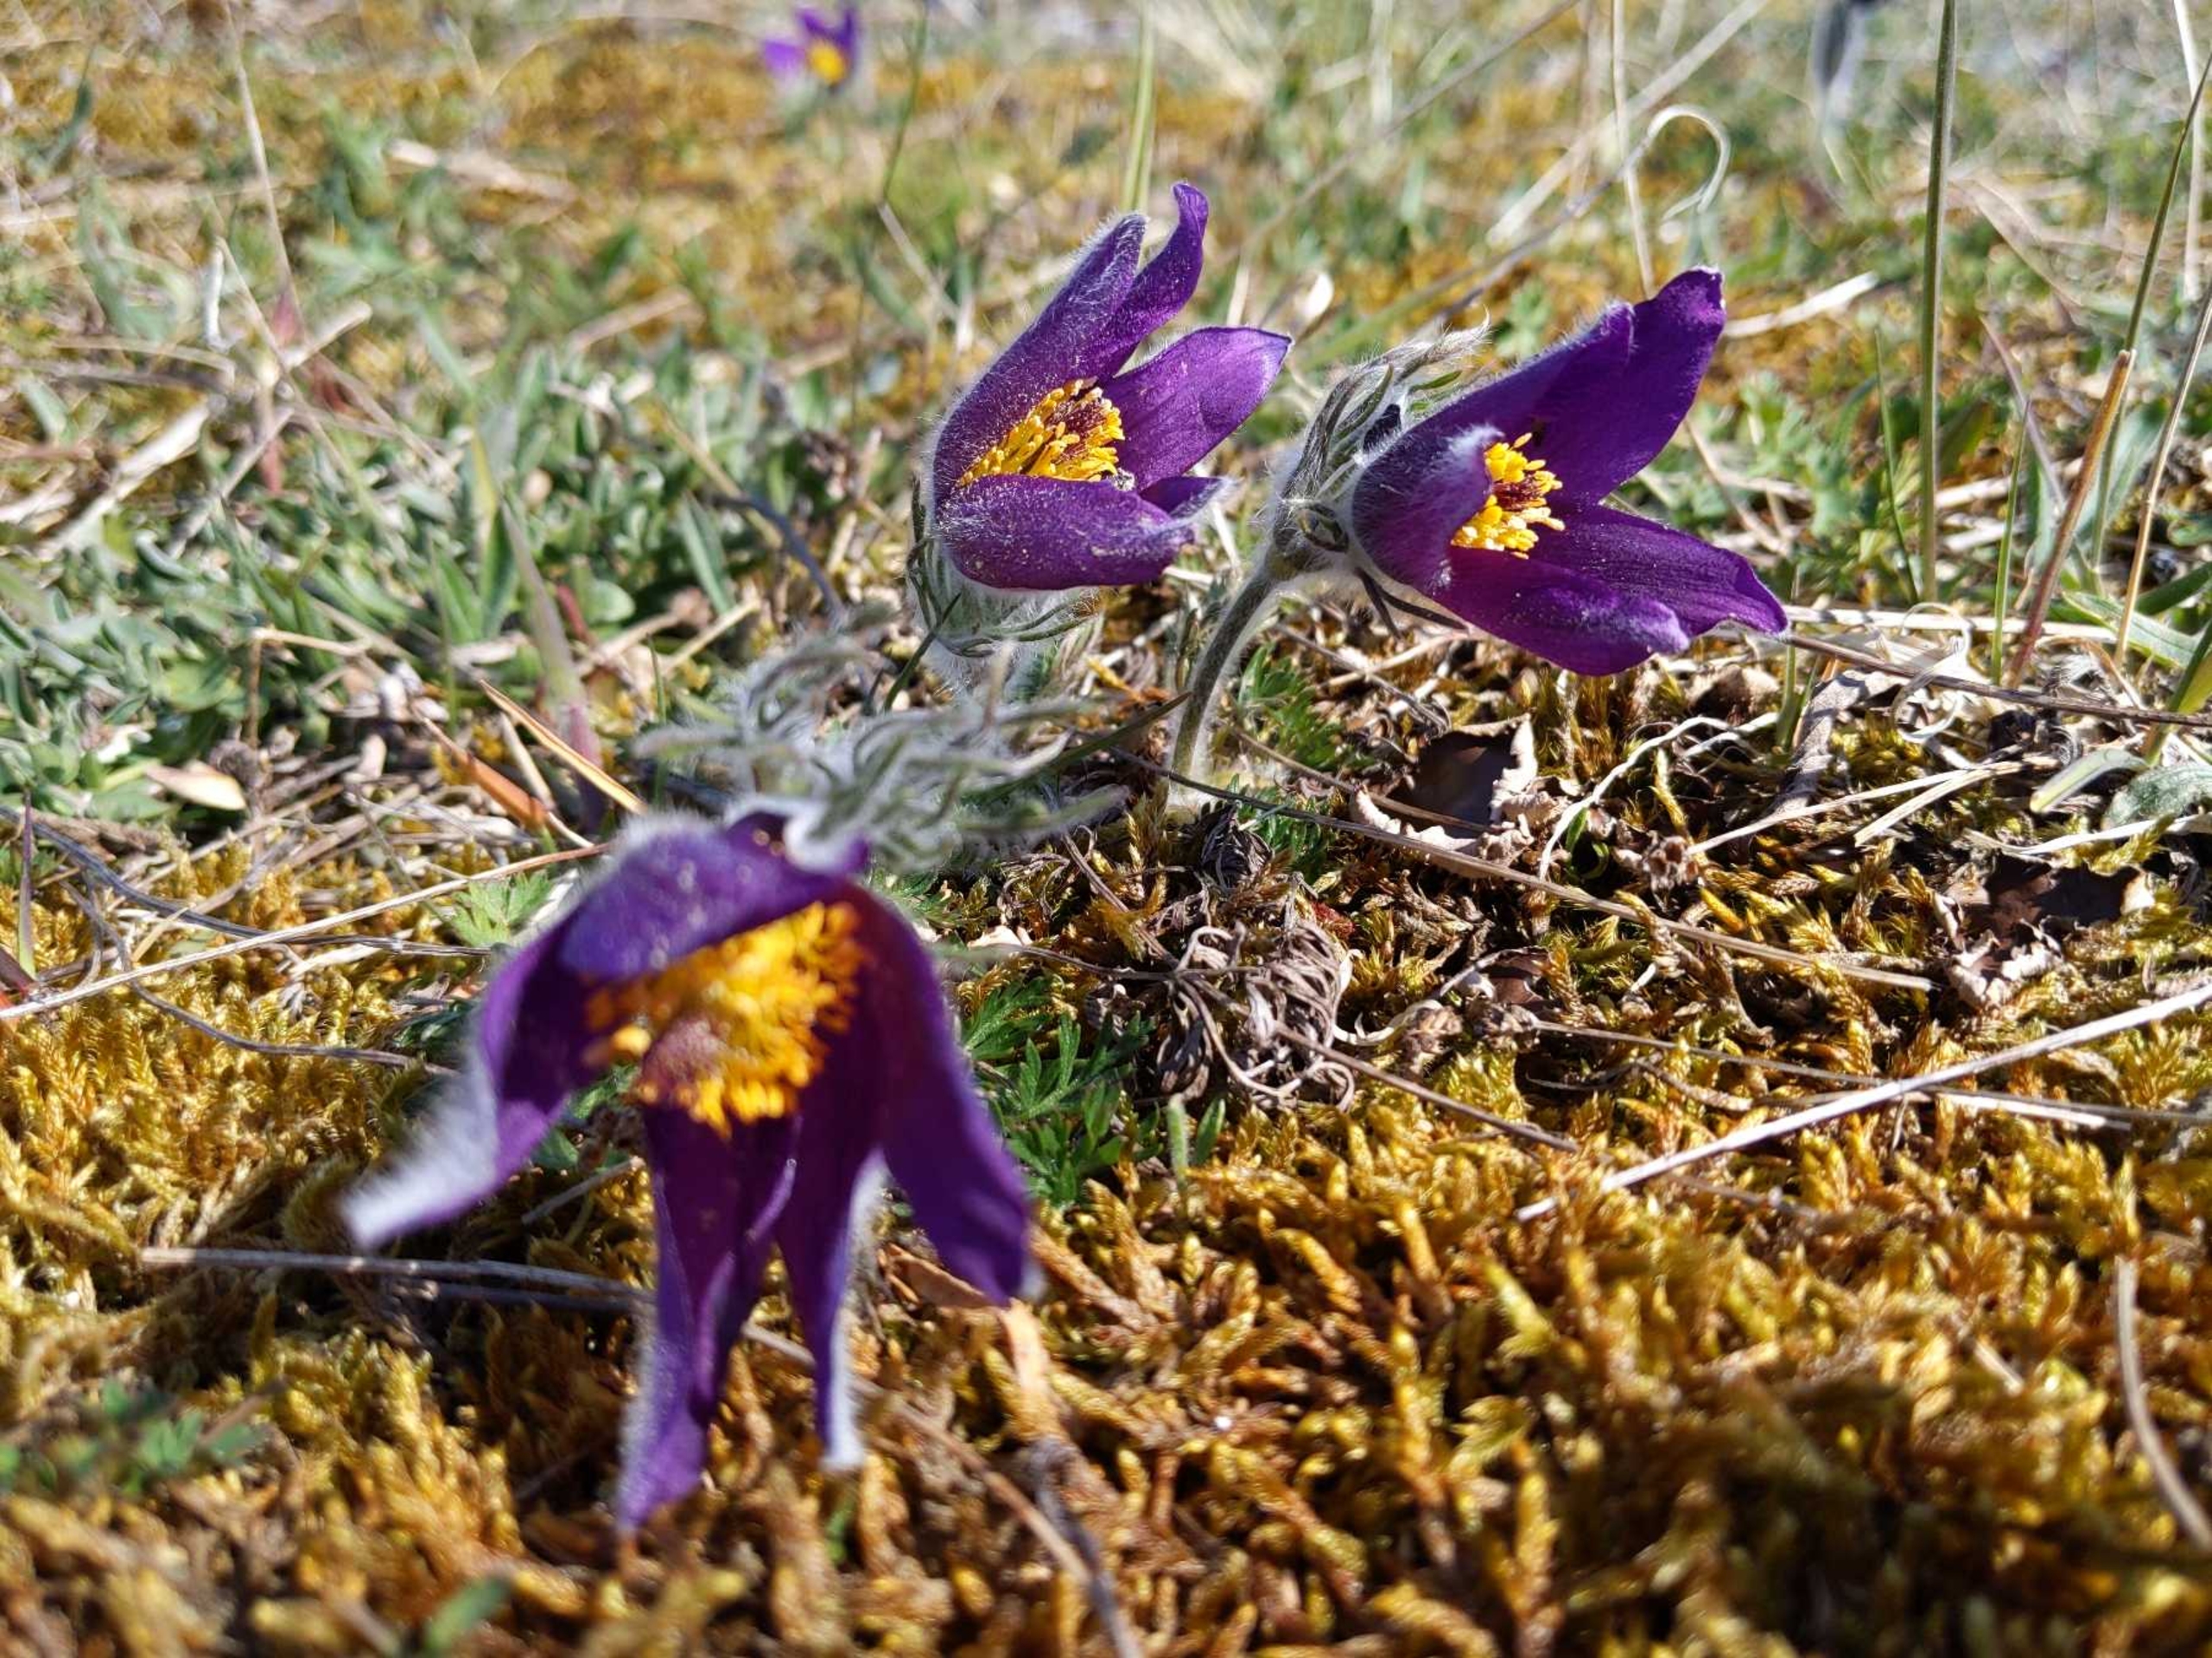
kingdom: Plantae
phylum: Tracheophyta
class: Magnoliopsida
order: Ranunculales
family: Ranunculaceae
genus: Pulsatilla
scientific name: Pulsatilla vulgaris
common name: Opret kobjælde
